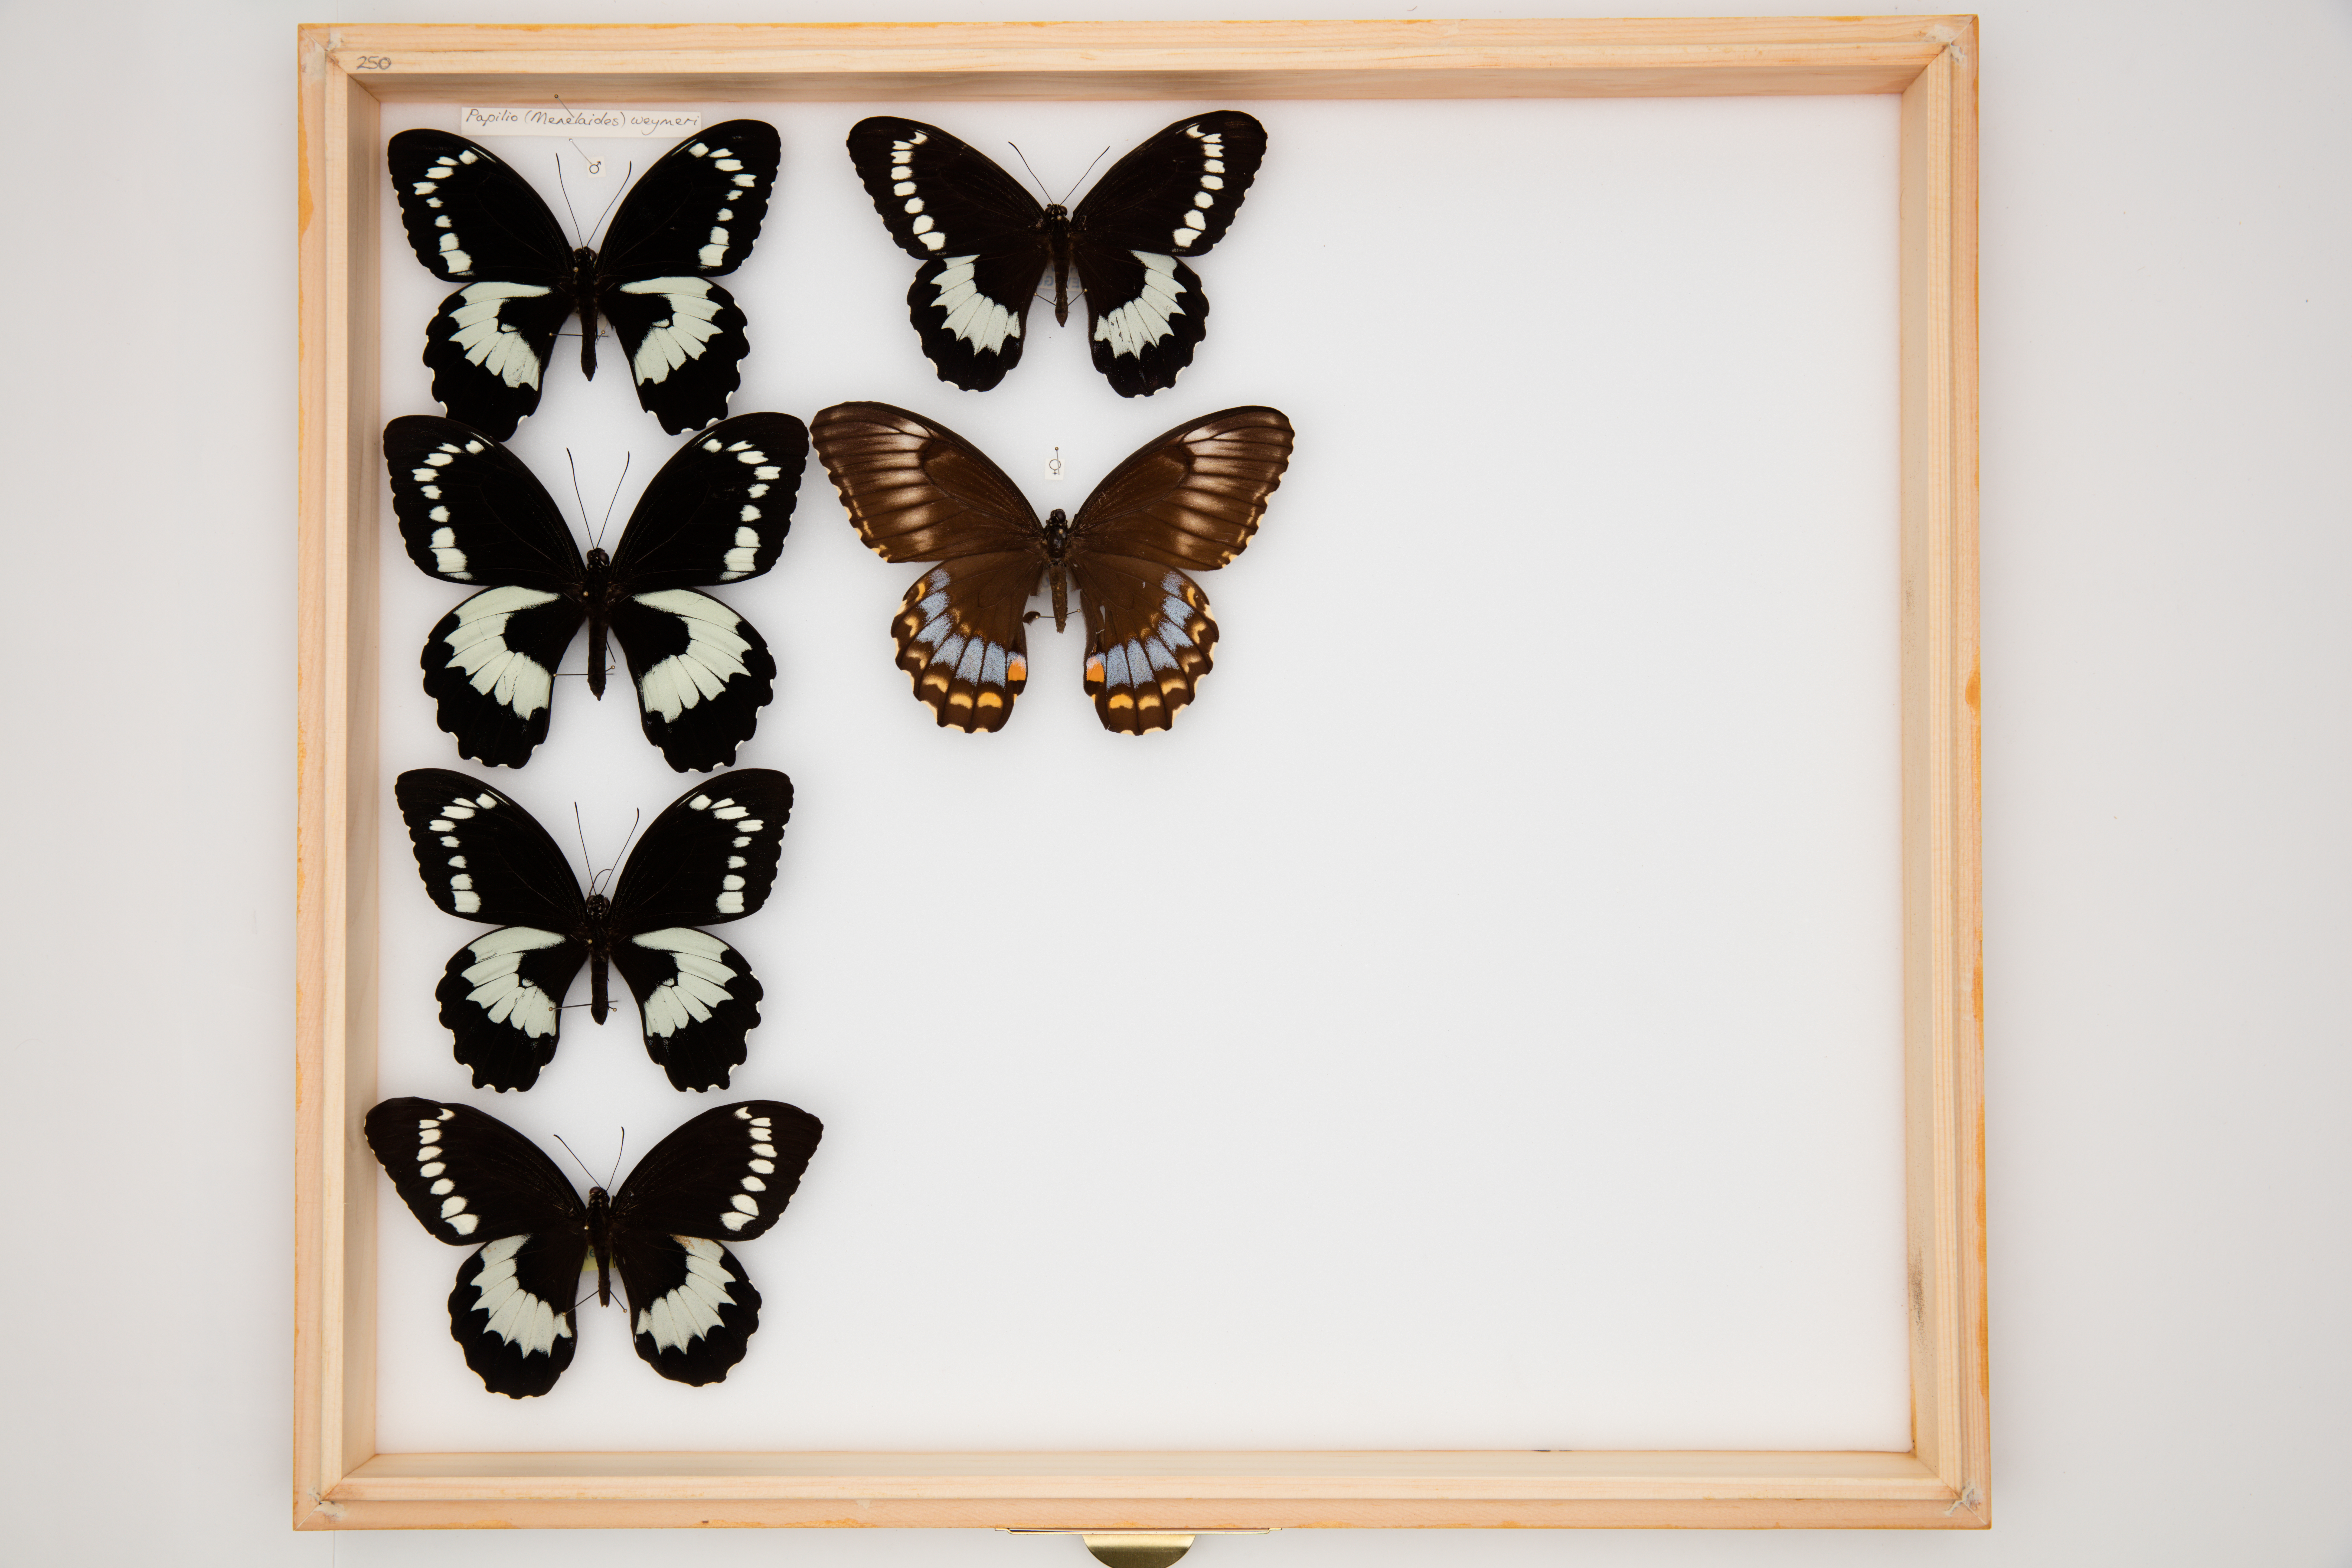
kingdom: Animalia
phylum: Arthropoda
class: Insecta
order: Lepidoptera
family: Papilionidae
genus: Papilio
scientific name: Papilio weymeri
